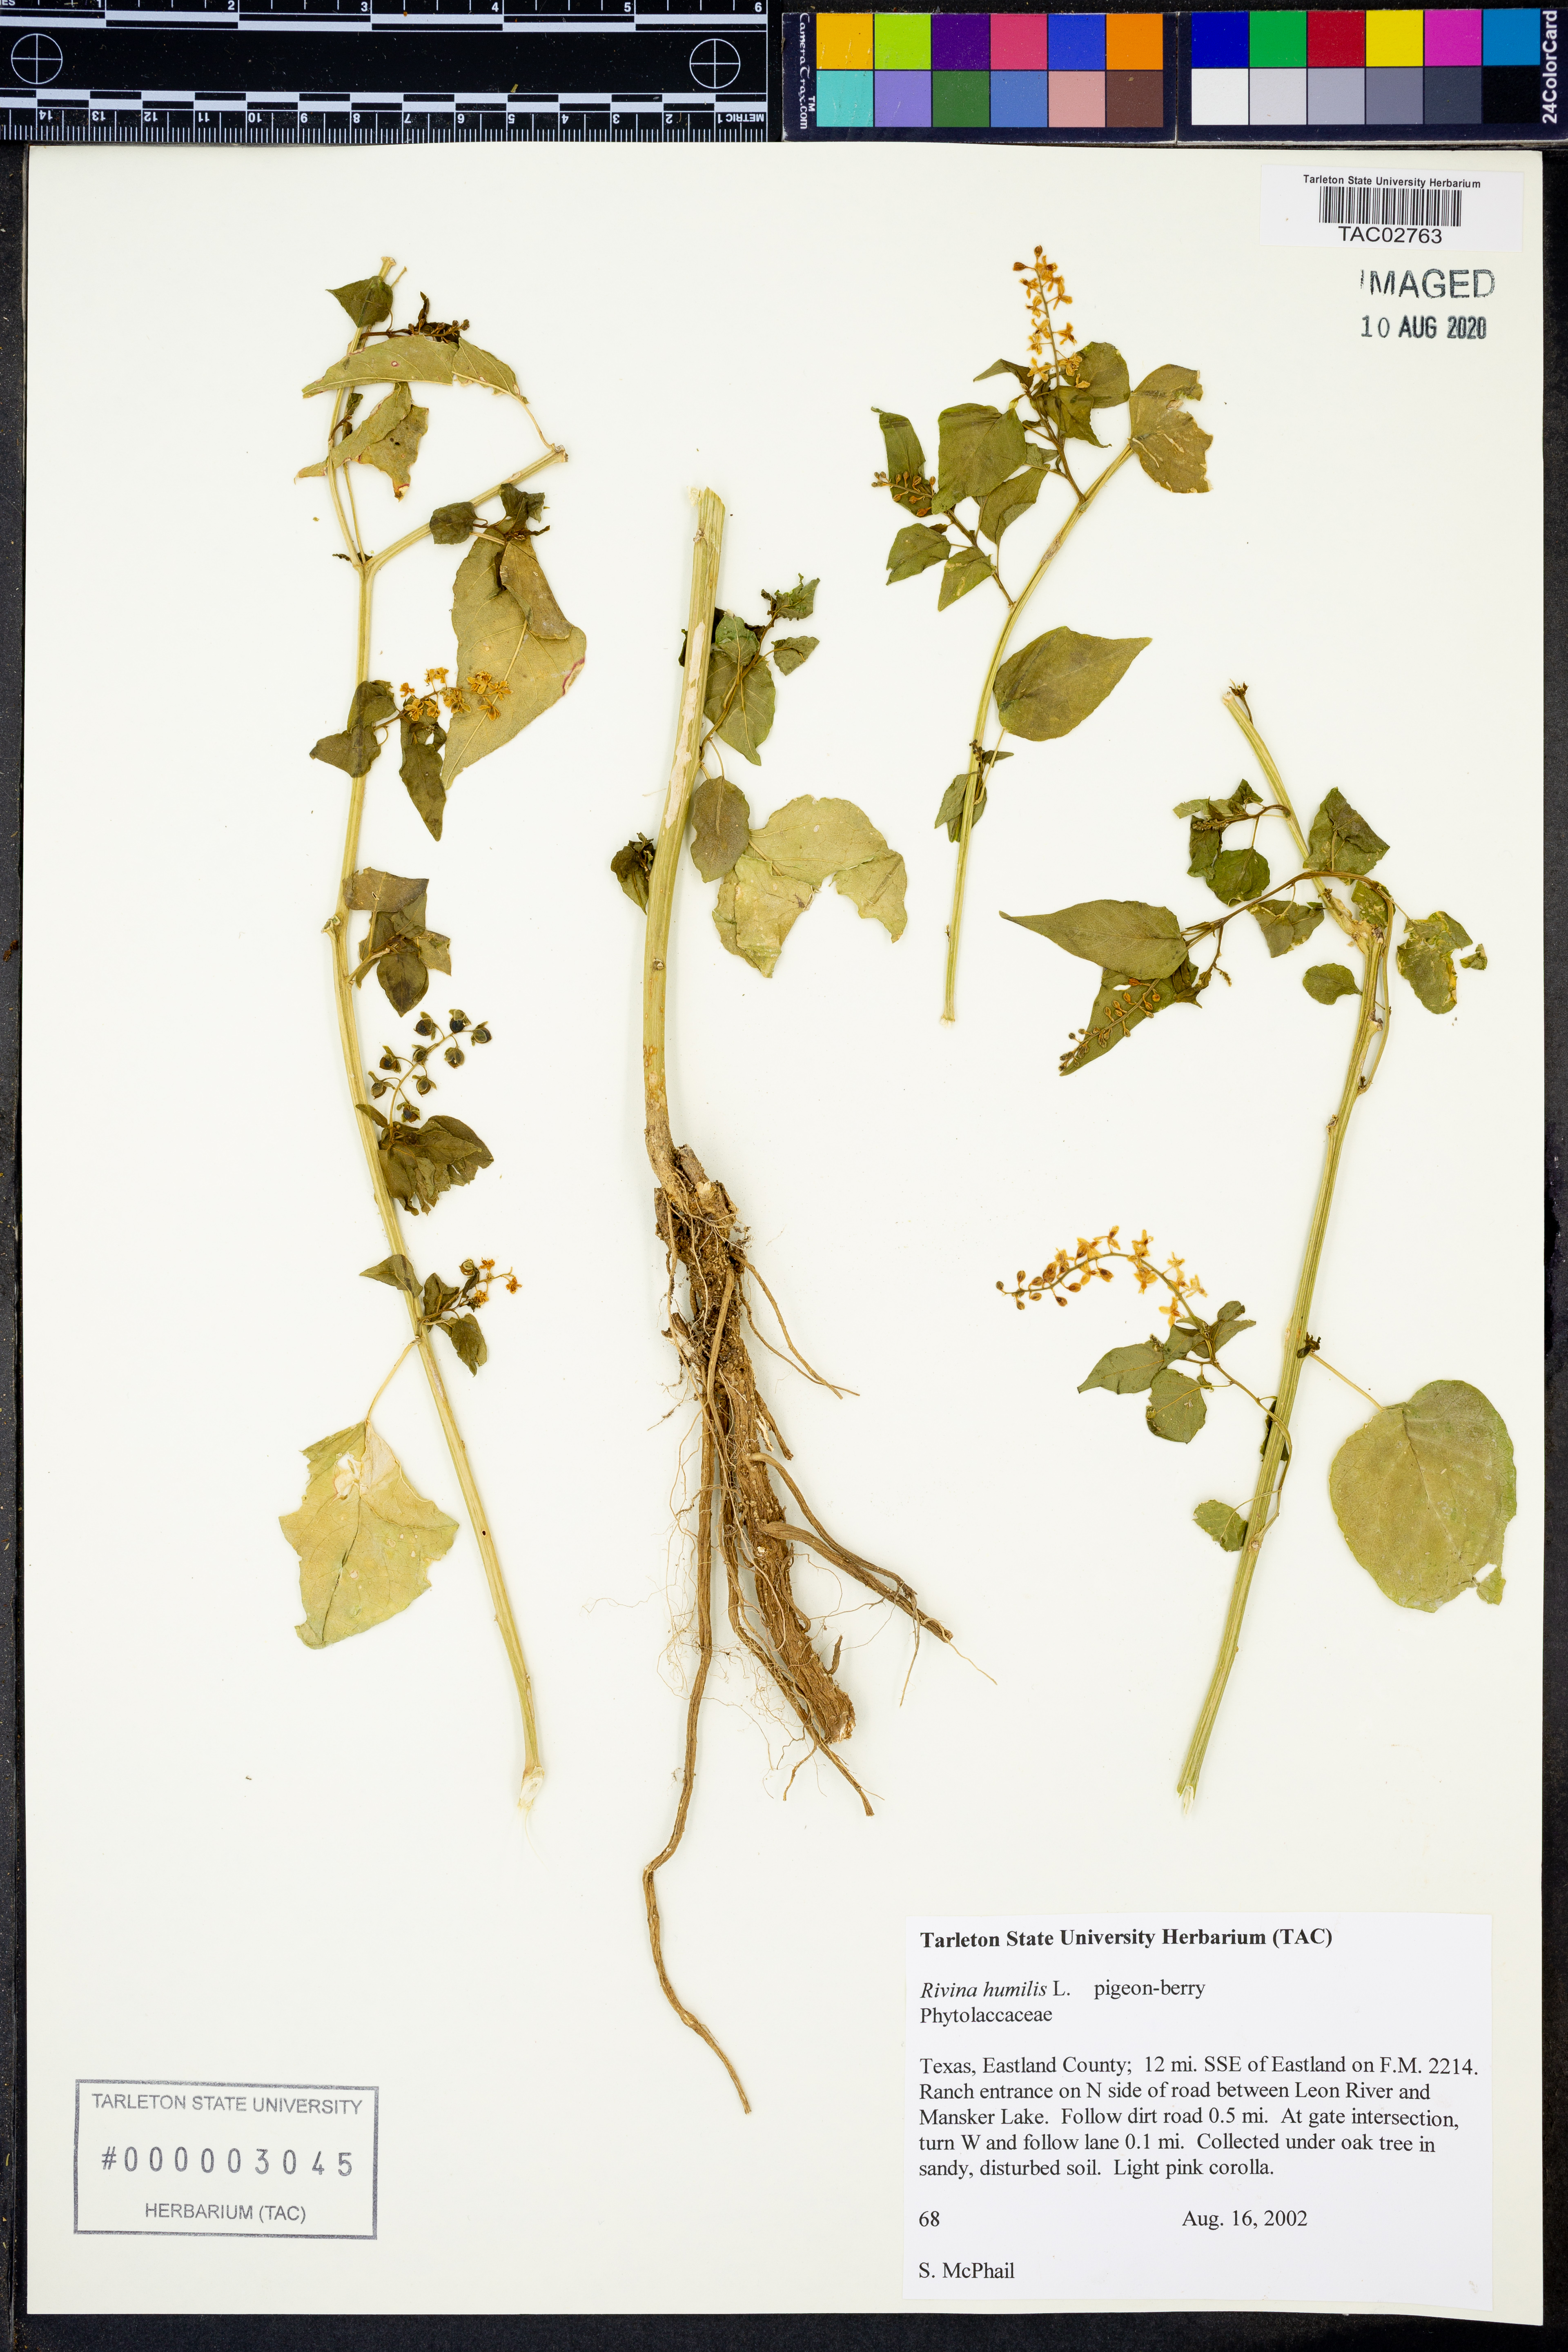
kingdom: Plantae
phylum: Tracheophyta
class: Magnoliopsida
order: Caryophyllales
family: Phytolaccaceae
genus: Rivina
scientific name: Rivina humilis
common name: Rougeplant
